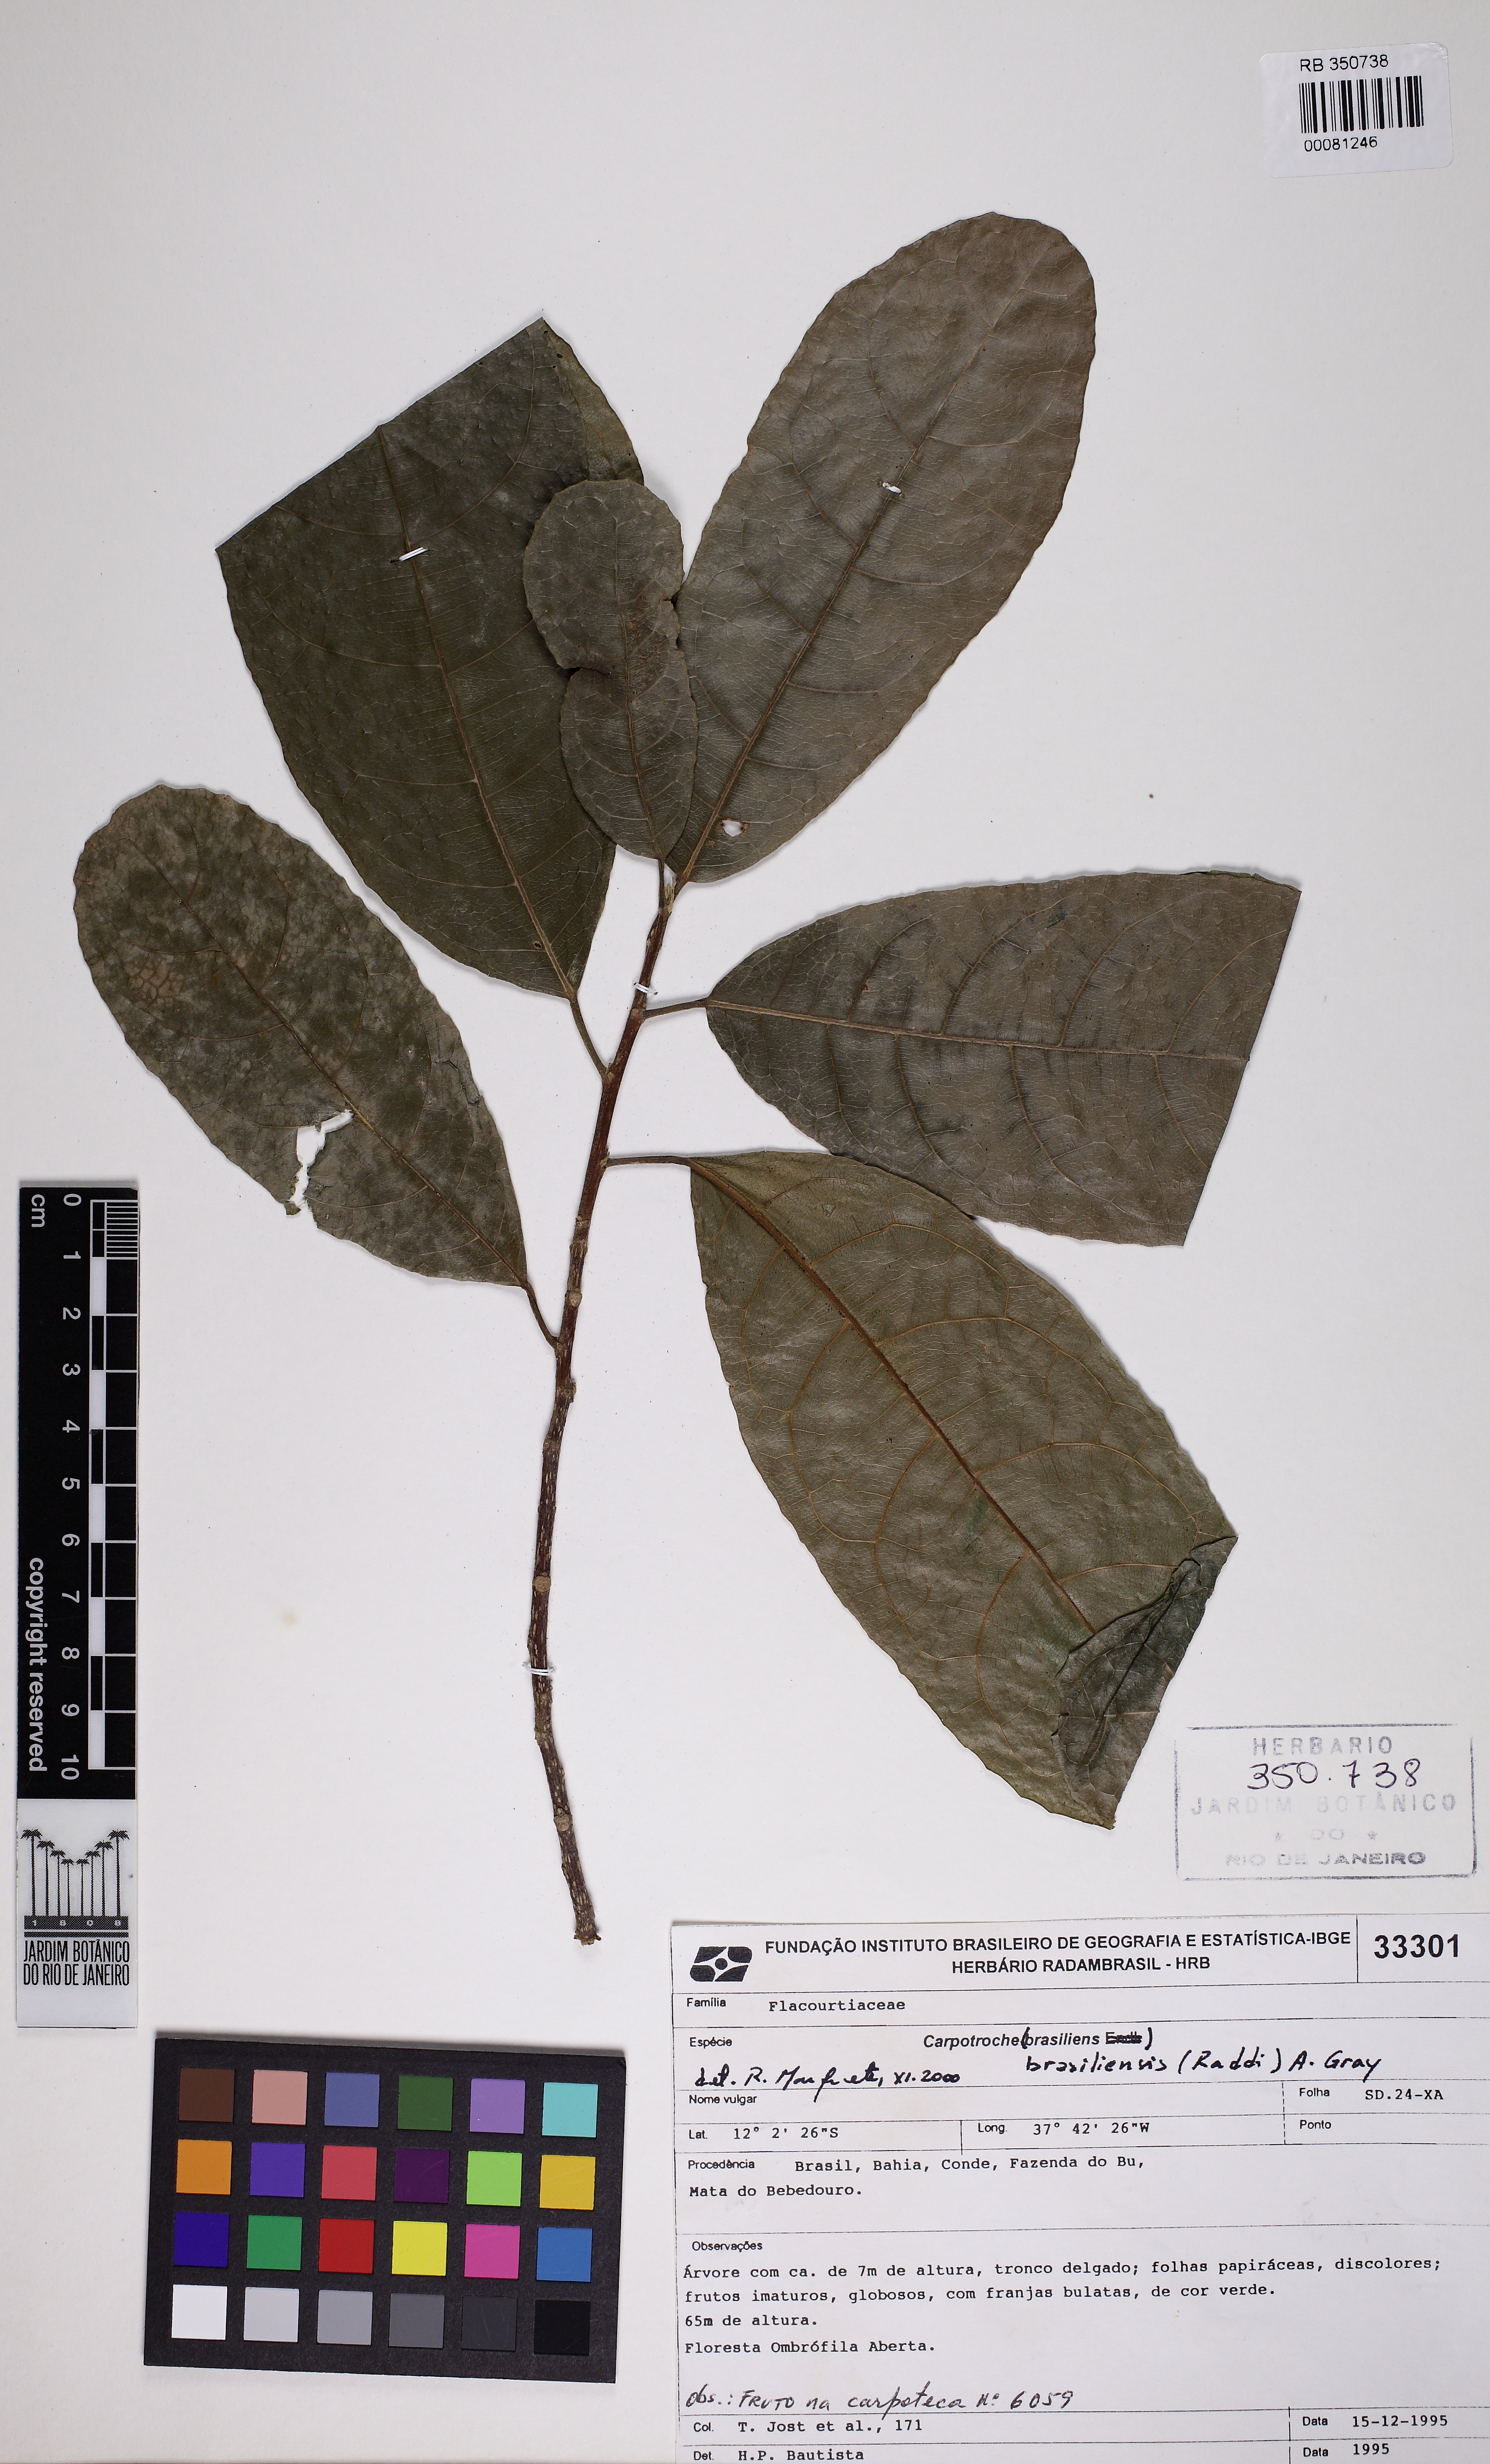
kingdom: Plantae
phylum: Tracheophyta
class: Magnoliopsida
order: Malpighiales
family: Achariaceae
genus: Carpotroche
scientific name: Carpotroche brasiliensis
